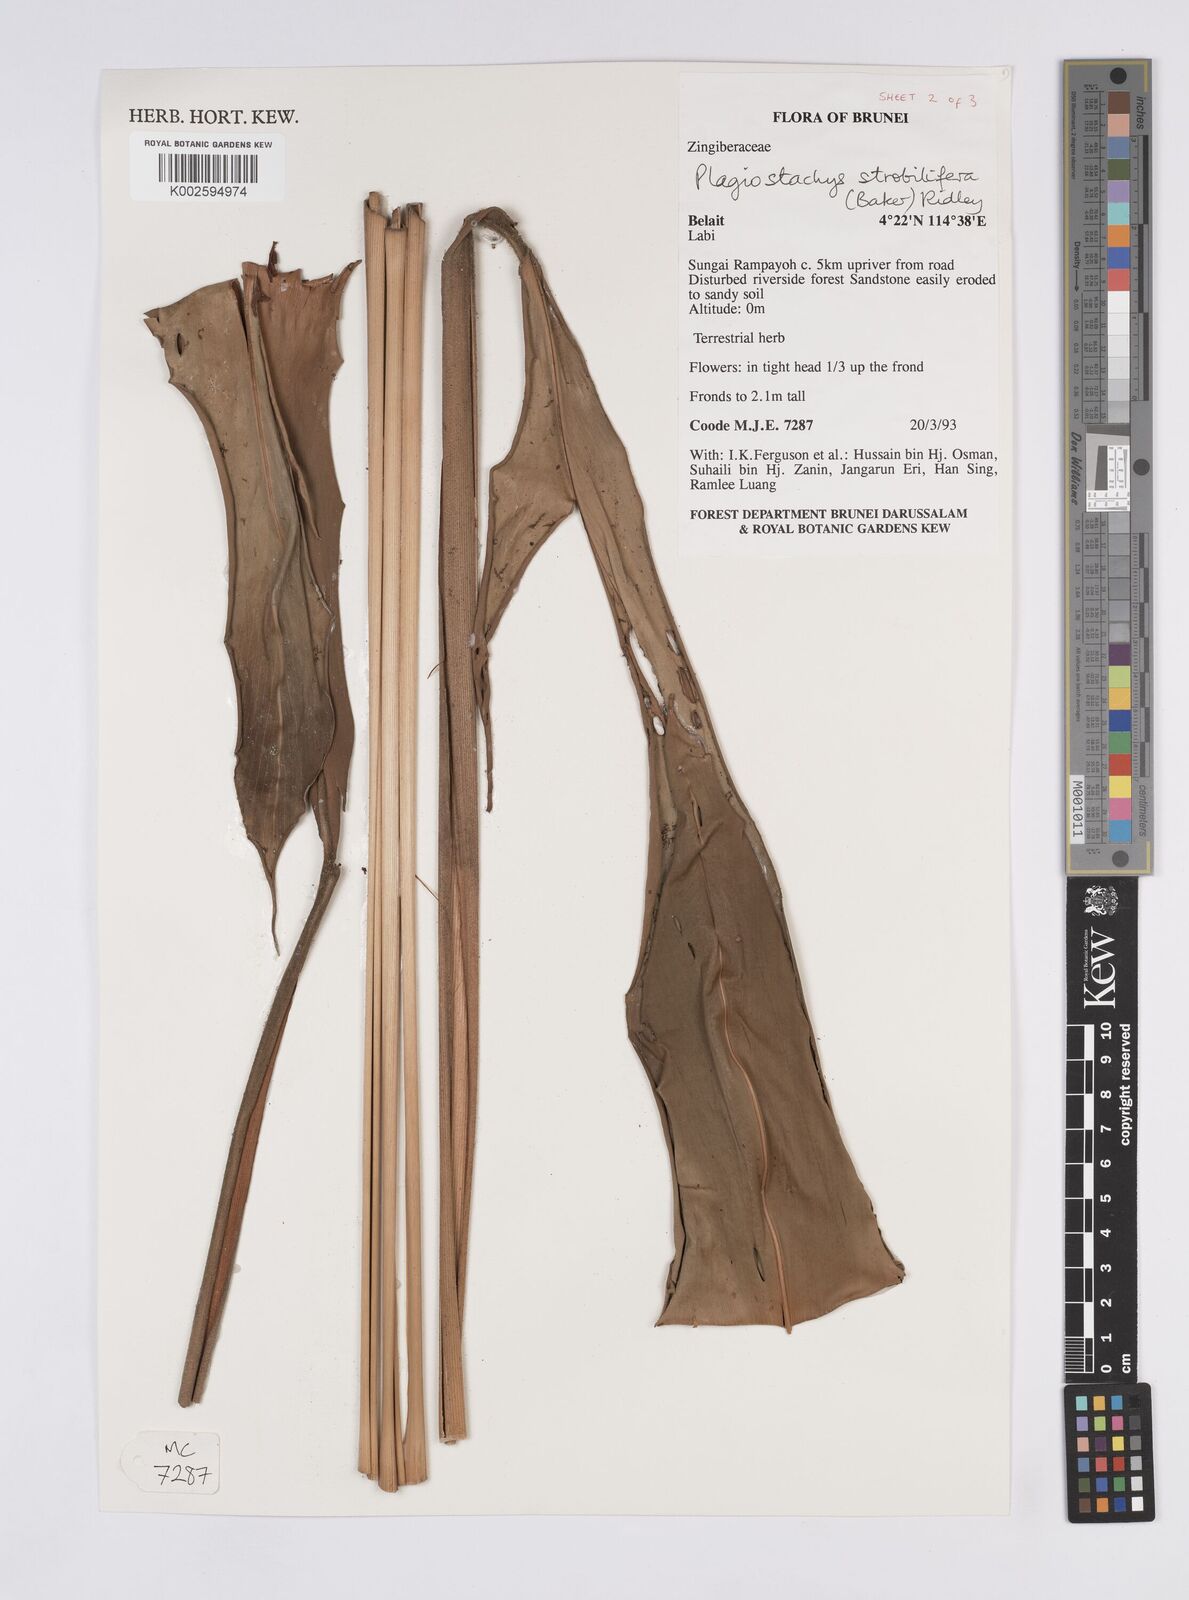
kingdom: Plantae
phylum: Tracheophyta
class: Liliopsida
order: Zingiberales
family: Zingiberaceae
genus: Plagiostachys
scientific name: Plagiostachys strobilifera
